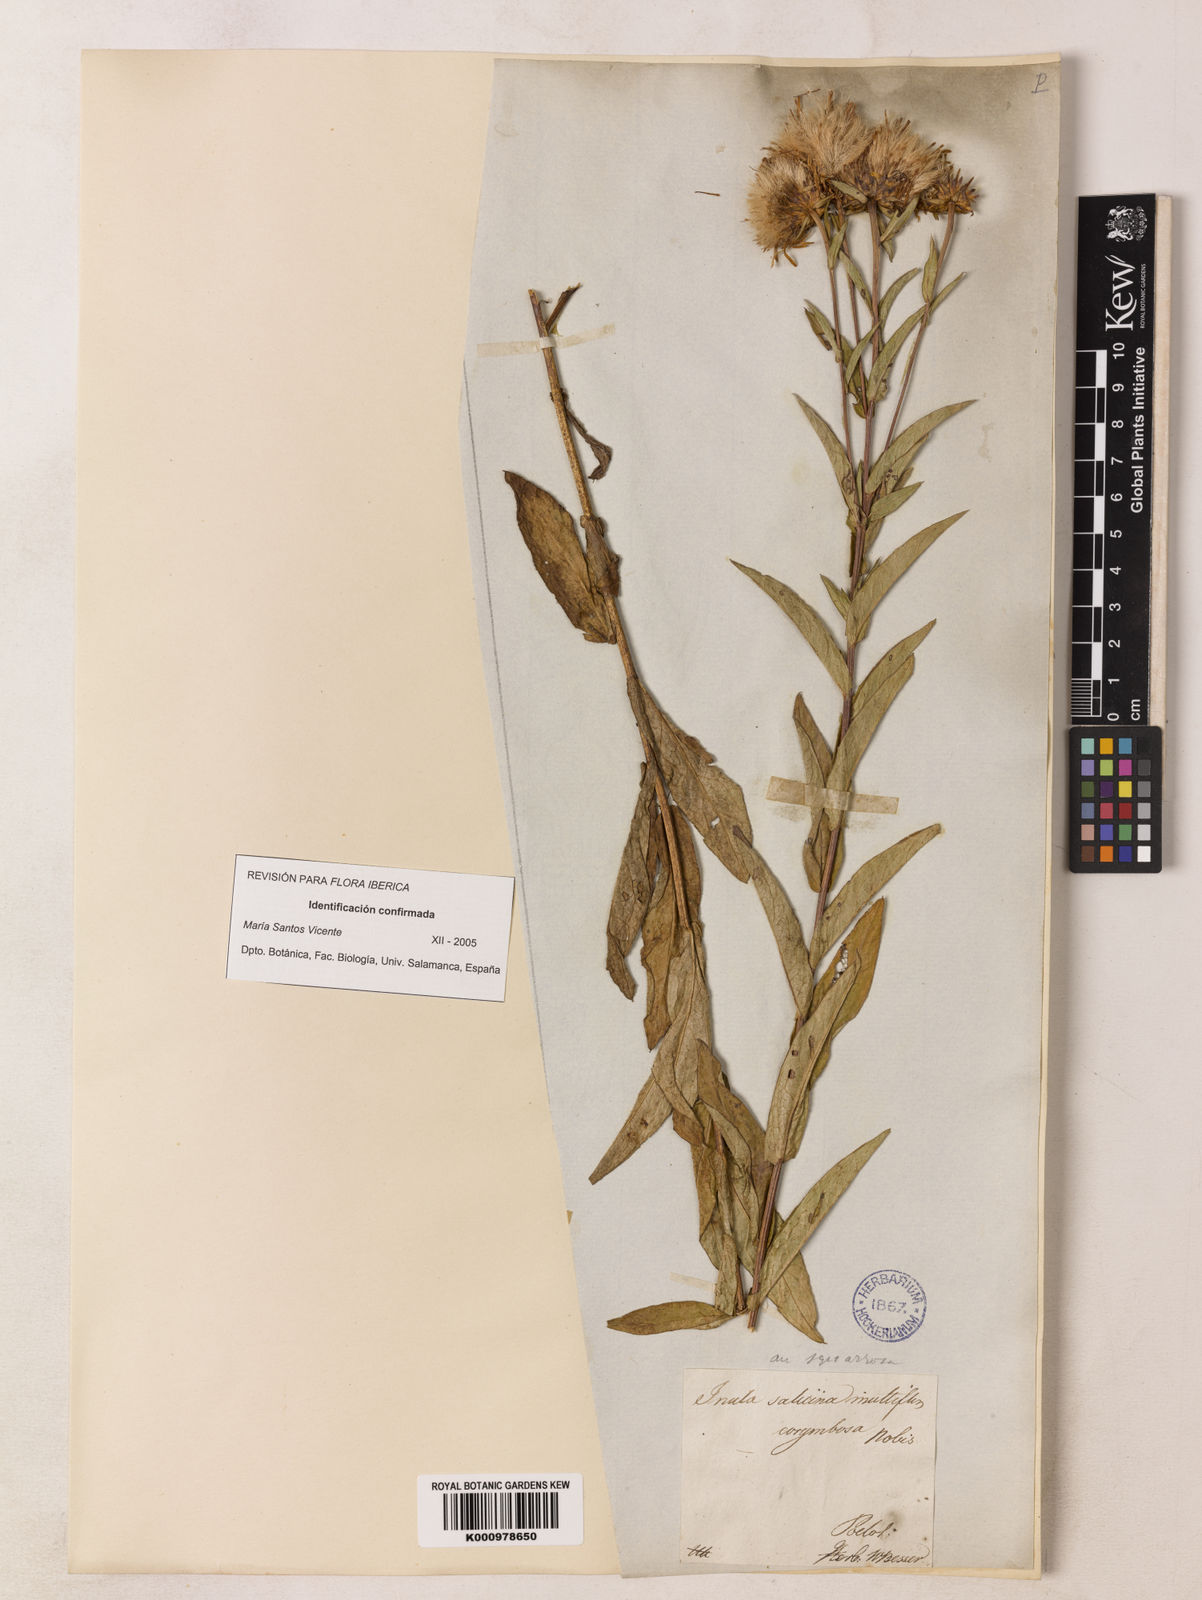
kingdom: Plantae
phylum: Tracheophyta
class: Magnoliopsida
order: Asterales
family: Asteraceae
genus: Pentanema
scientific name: Pentanema salicinum
